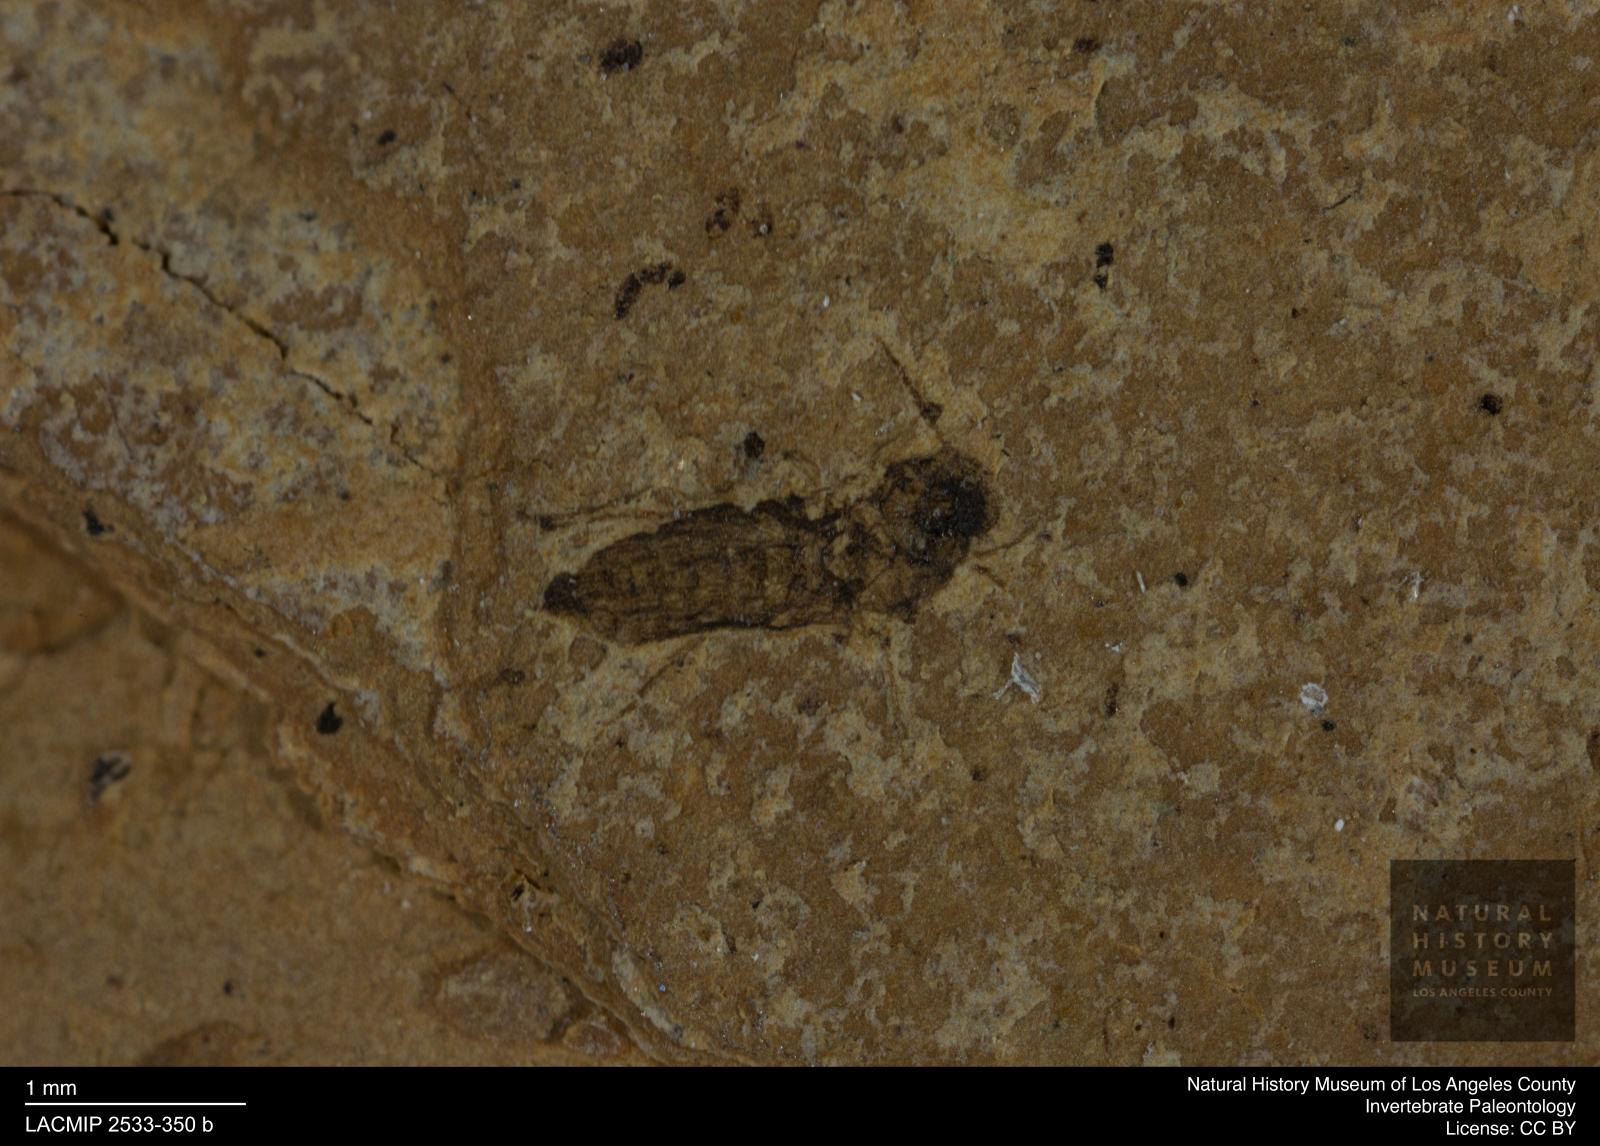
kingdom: Animalia
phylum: Arthropoda
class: Insecta
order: Diptera
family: Ceratopogonidae
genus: Culicoides
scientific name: Culicoides austerus
